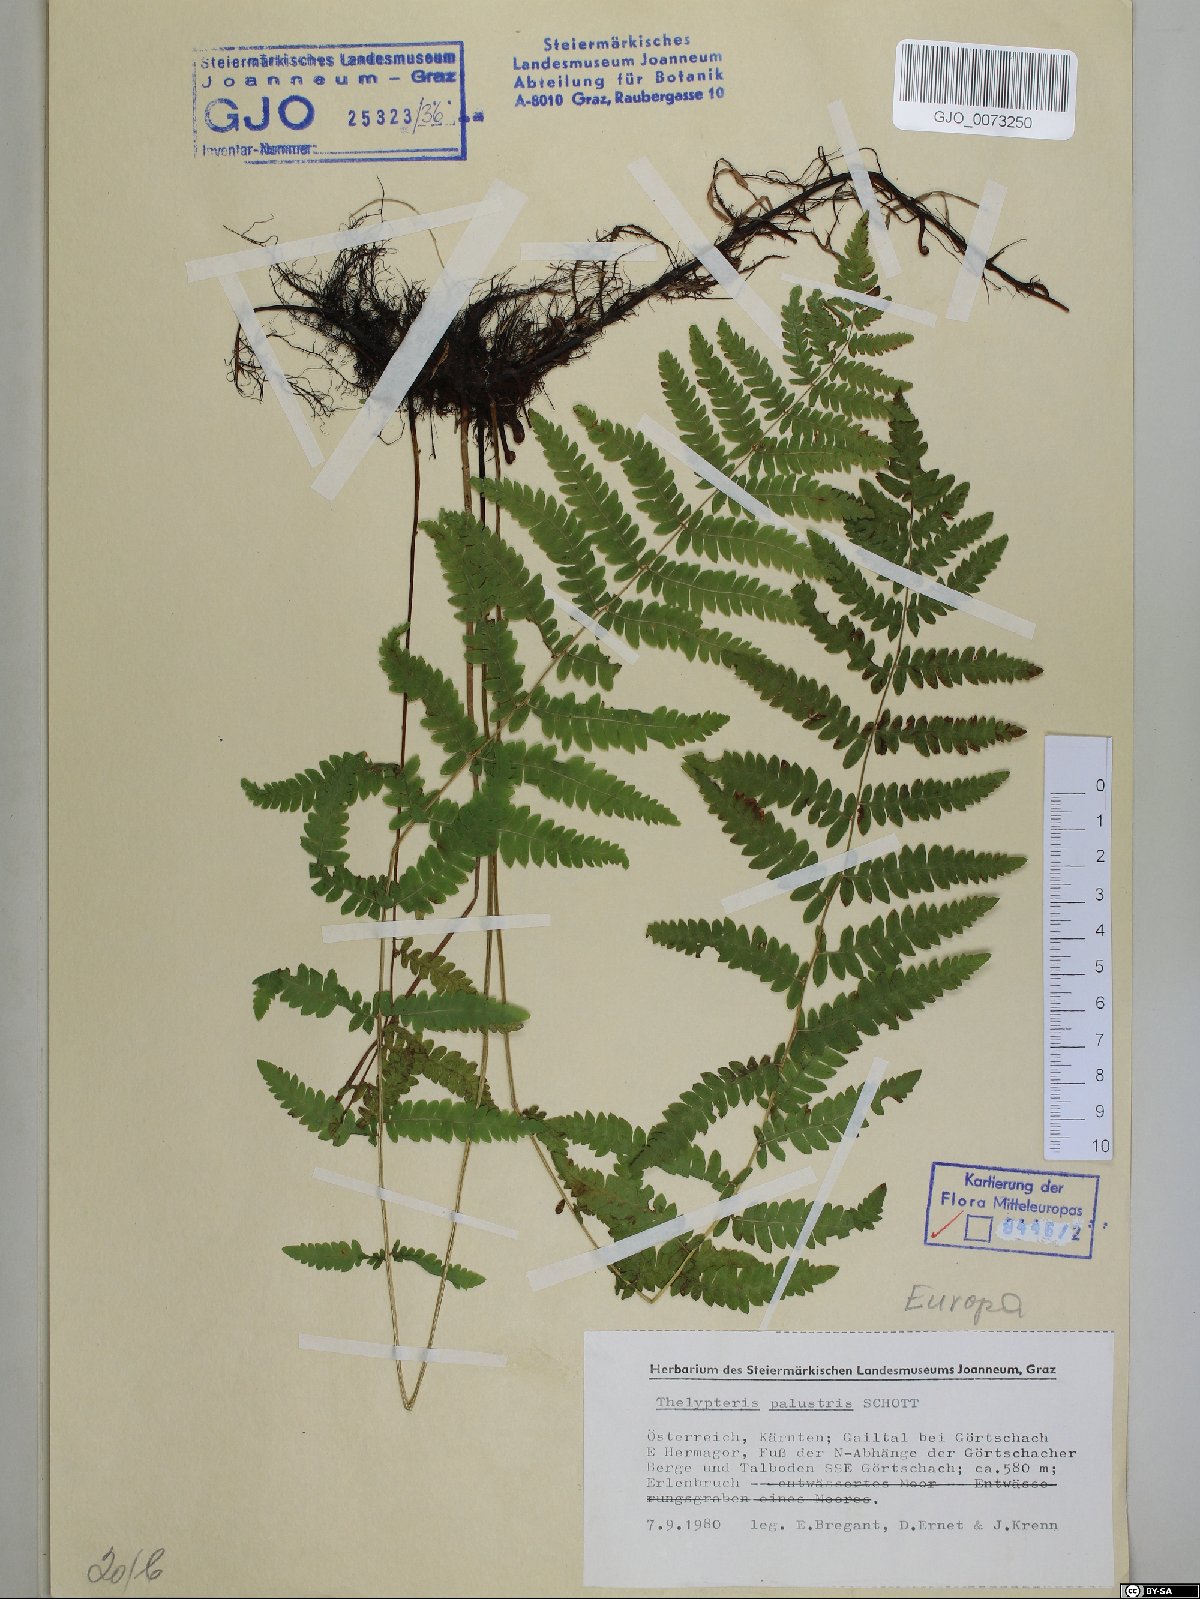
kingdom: Plantae
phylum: Tracheophyta
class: Polypodiopsida
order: Polypodiales
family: Thelypteridaceae
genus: Thelypteris
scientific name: Thelypteris palustris
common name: Marsh fern
